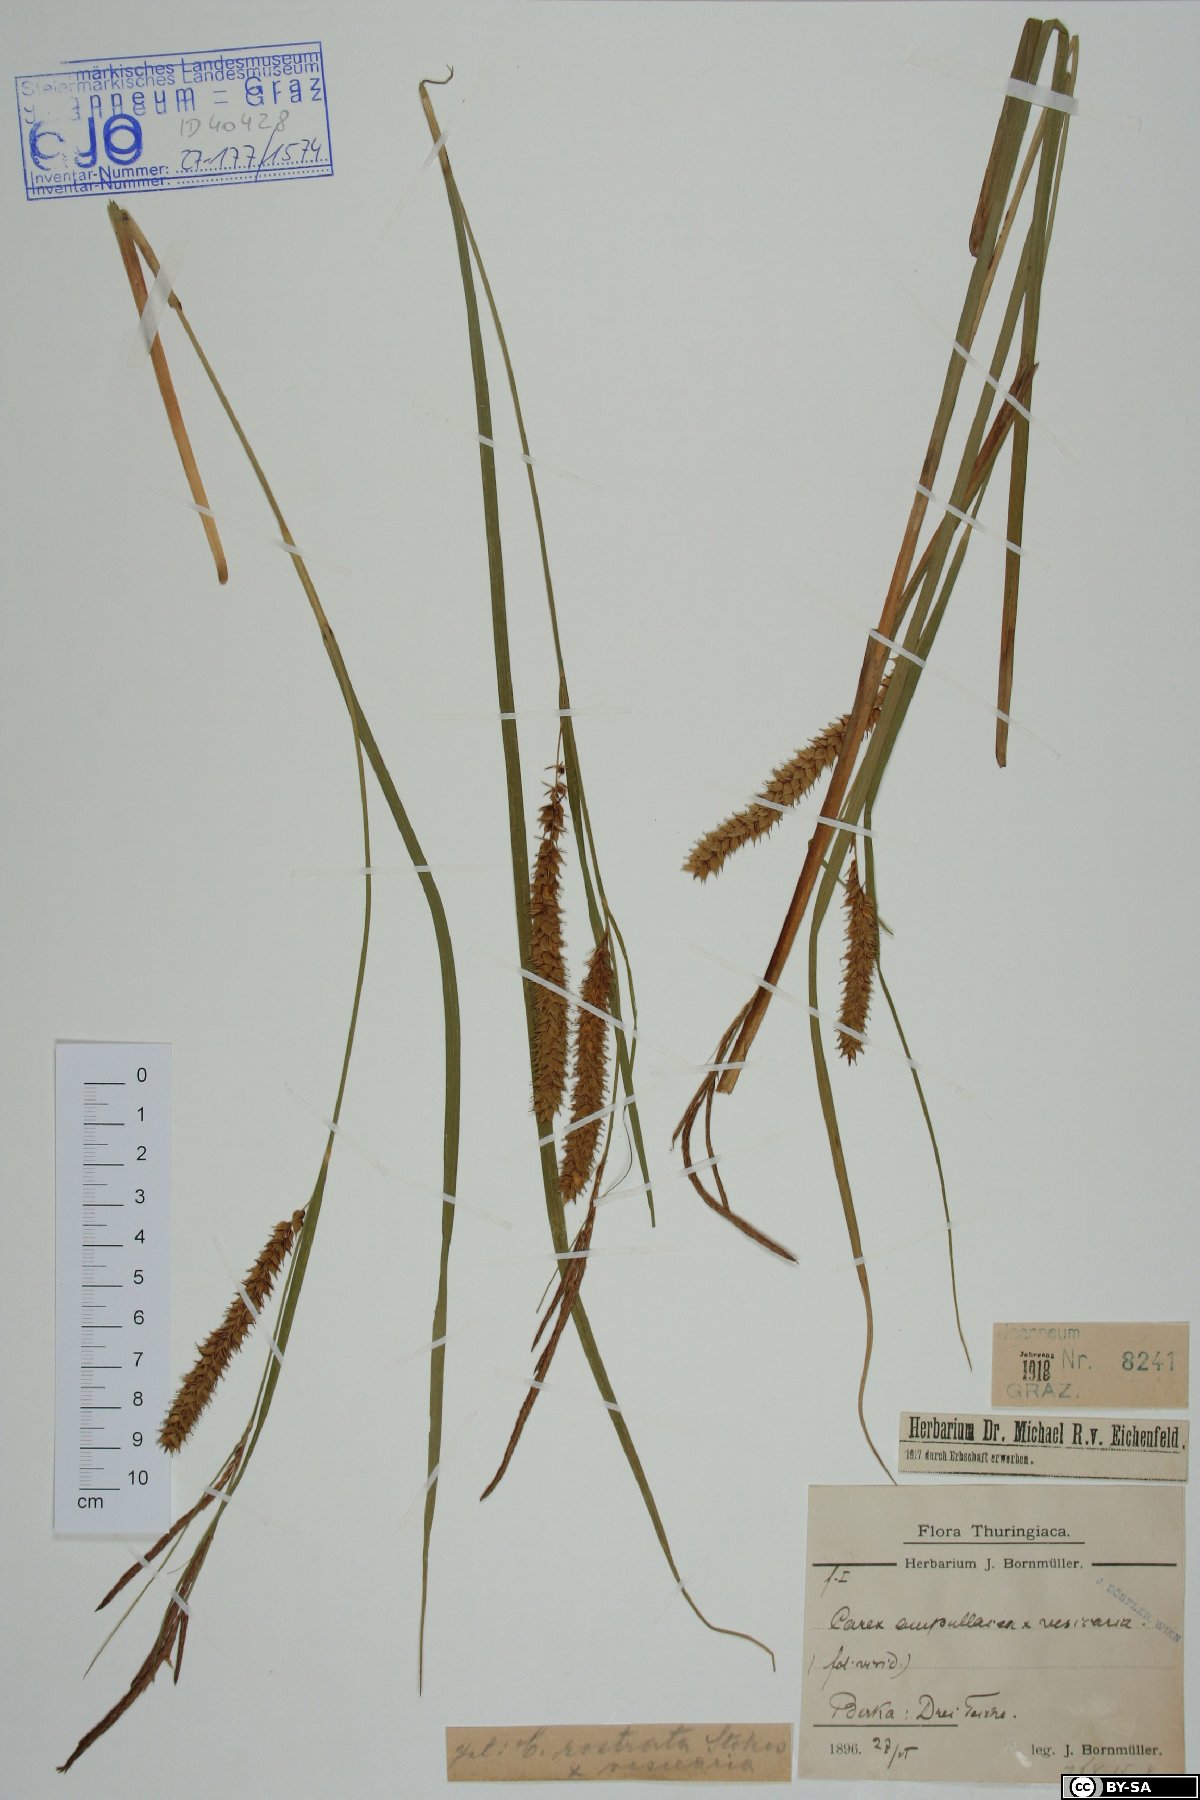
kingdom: Plantae
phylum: Tracheophyta
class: Liliopsida
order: Poales
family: Cyperaceae
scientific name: Cyperaceae
